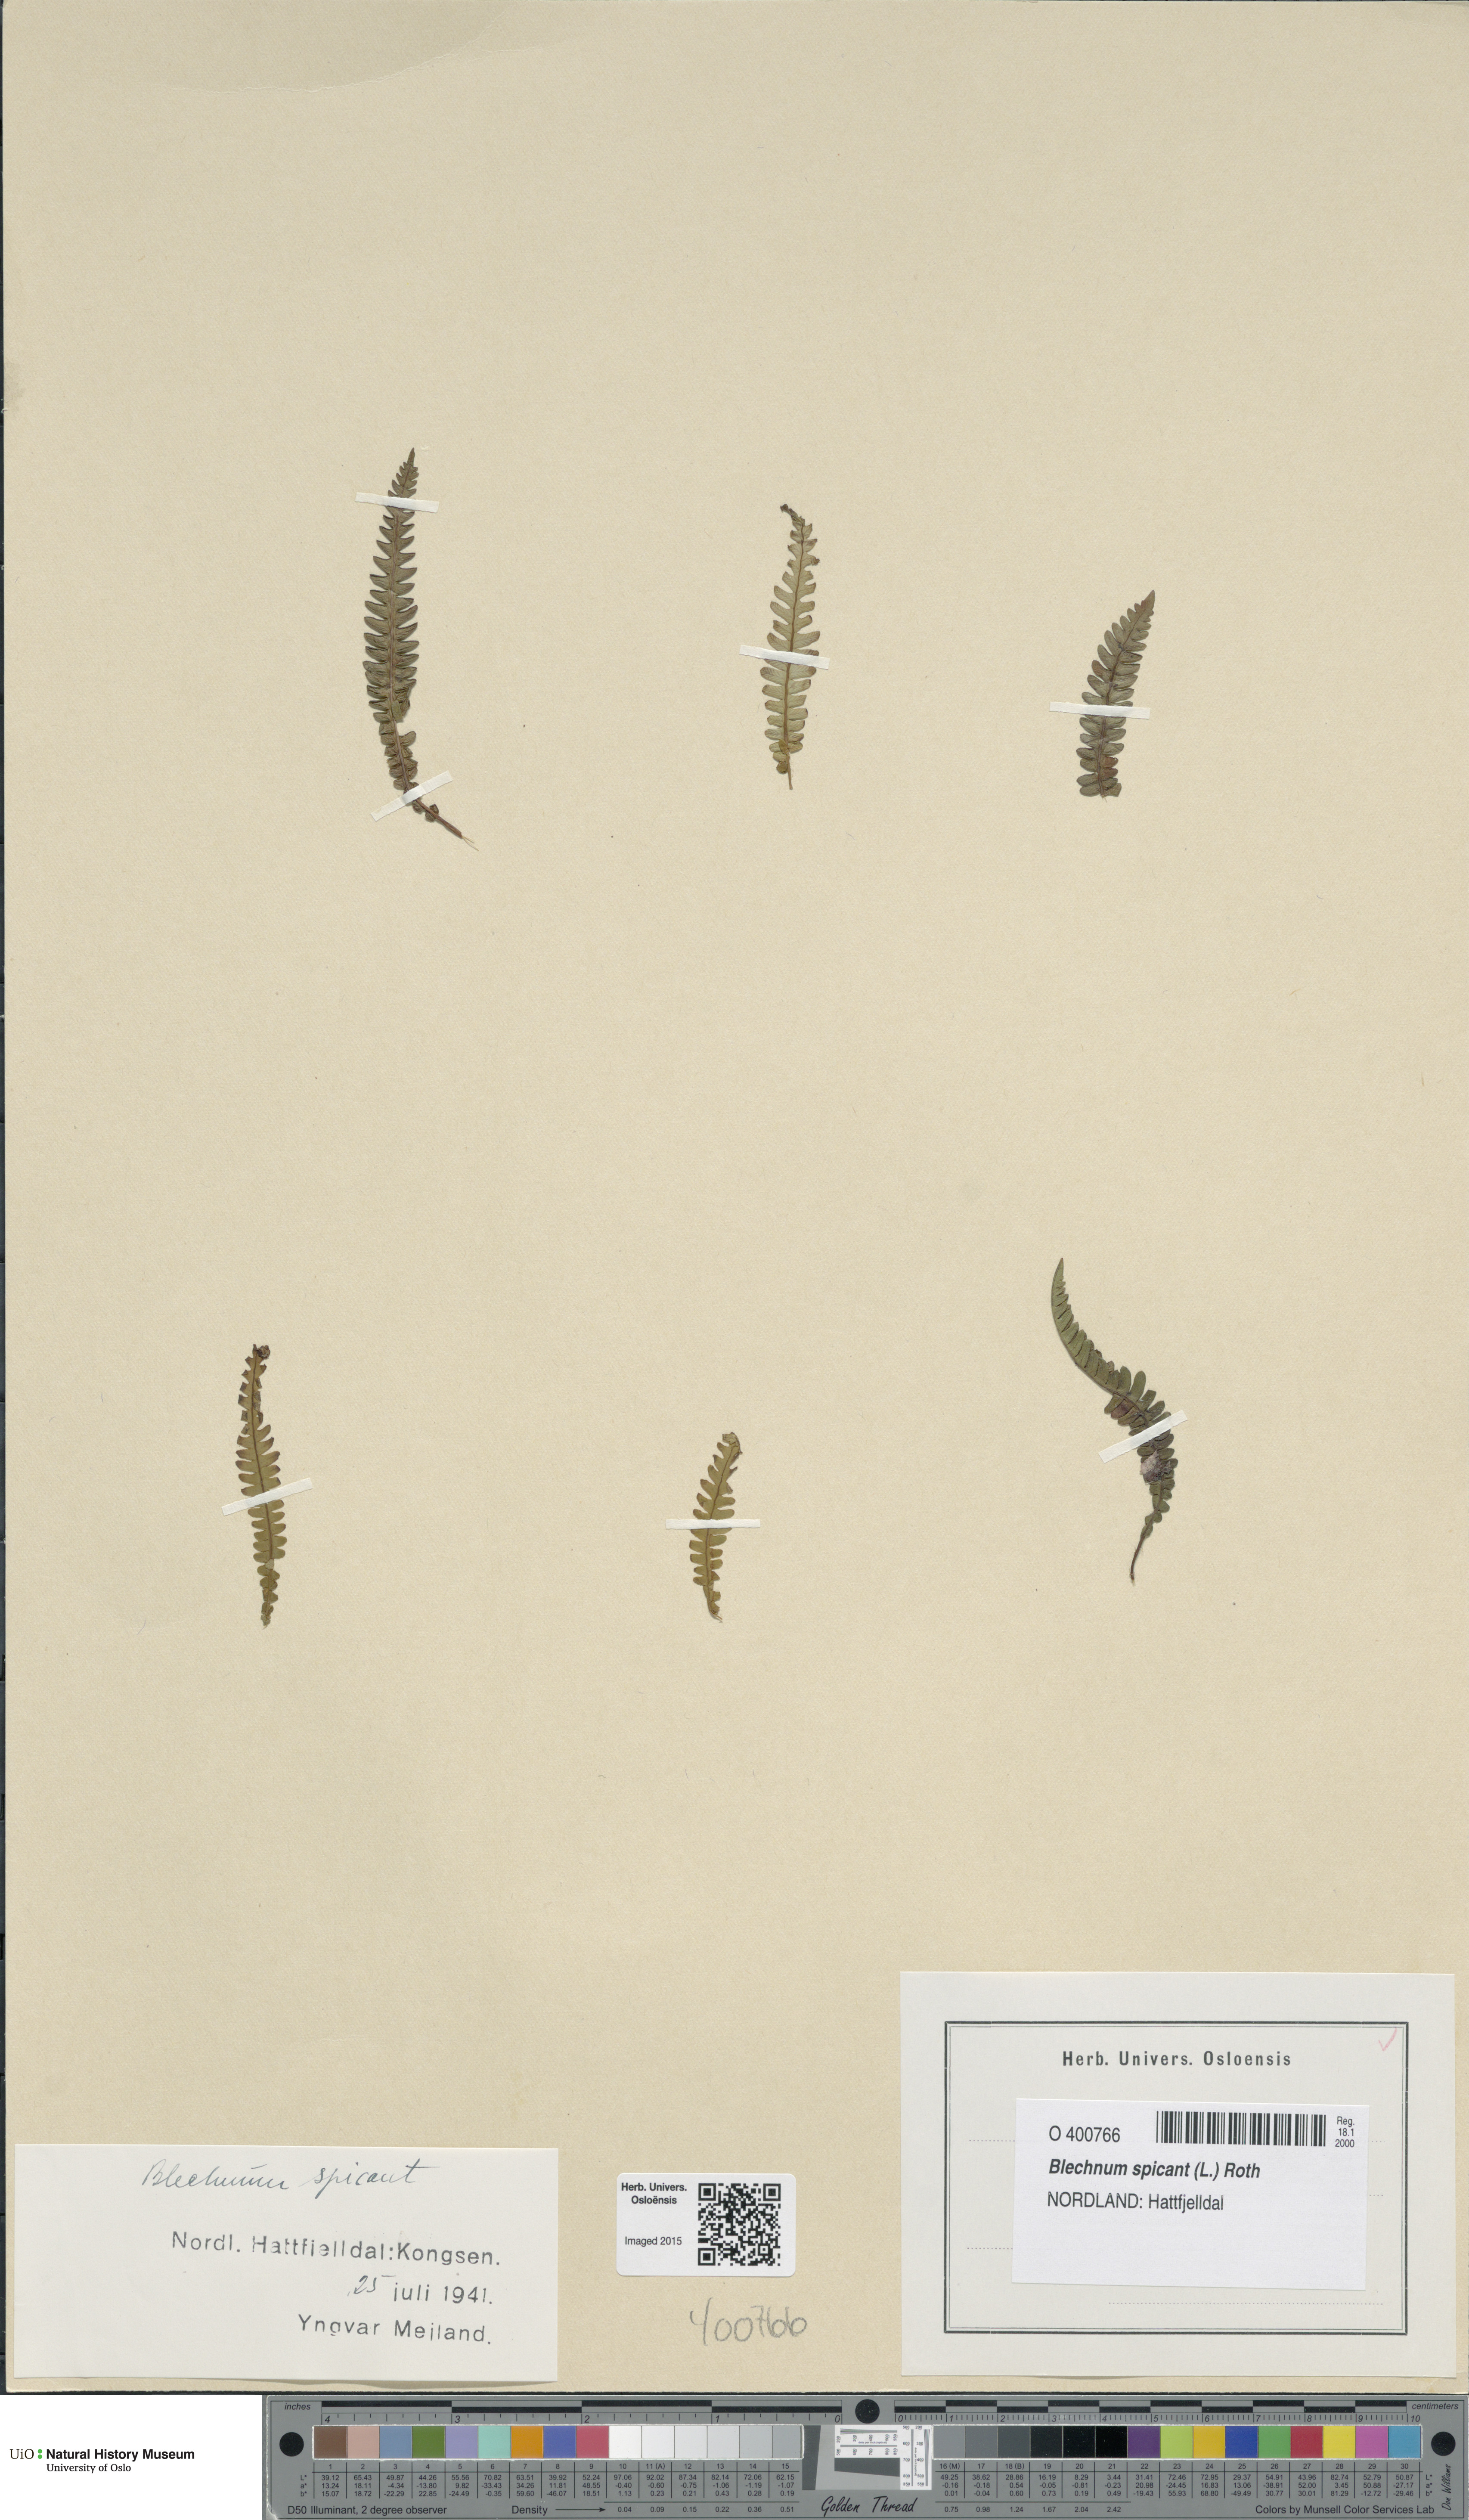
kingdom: Plantae
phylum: Tracheophyta
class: Polypodiopsida
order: Polypodiales
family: Blechnaceae
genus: Struthiopteris
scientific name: Struthiopteris spicant
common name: Deer fern
